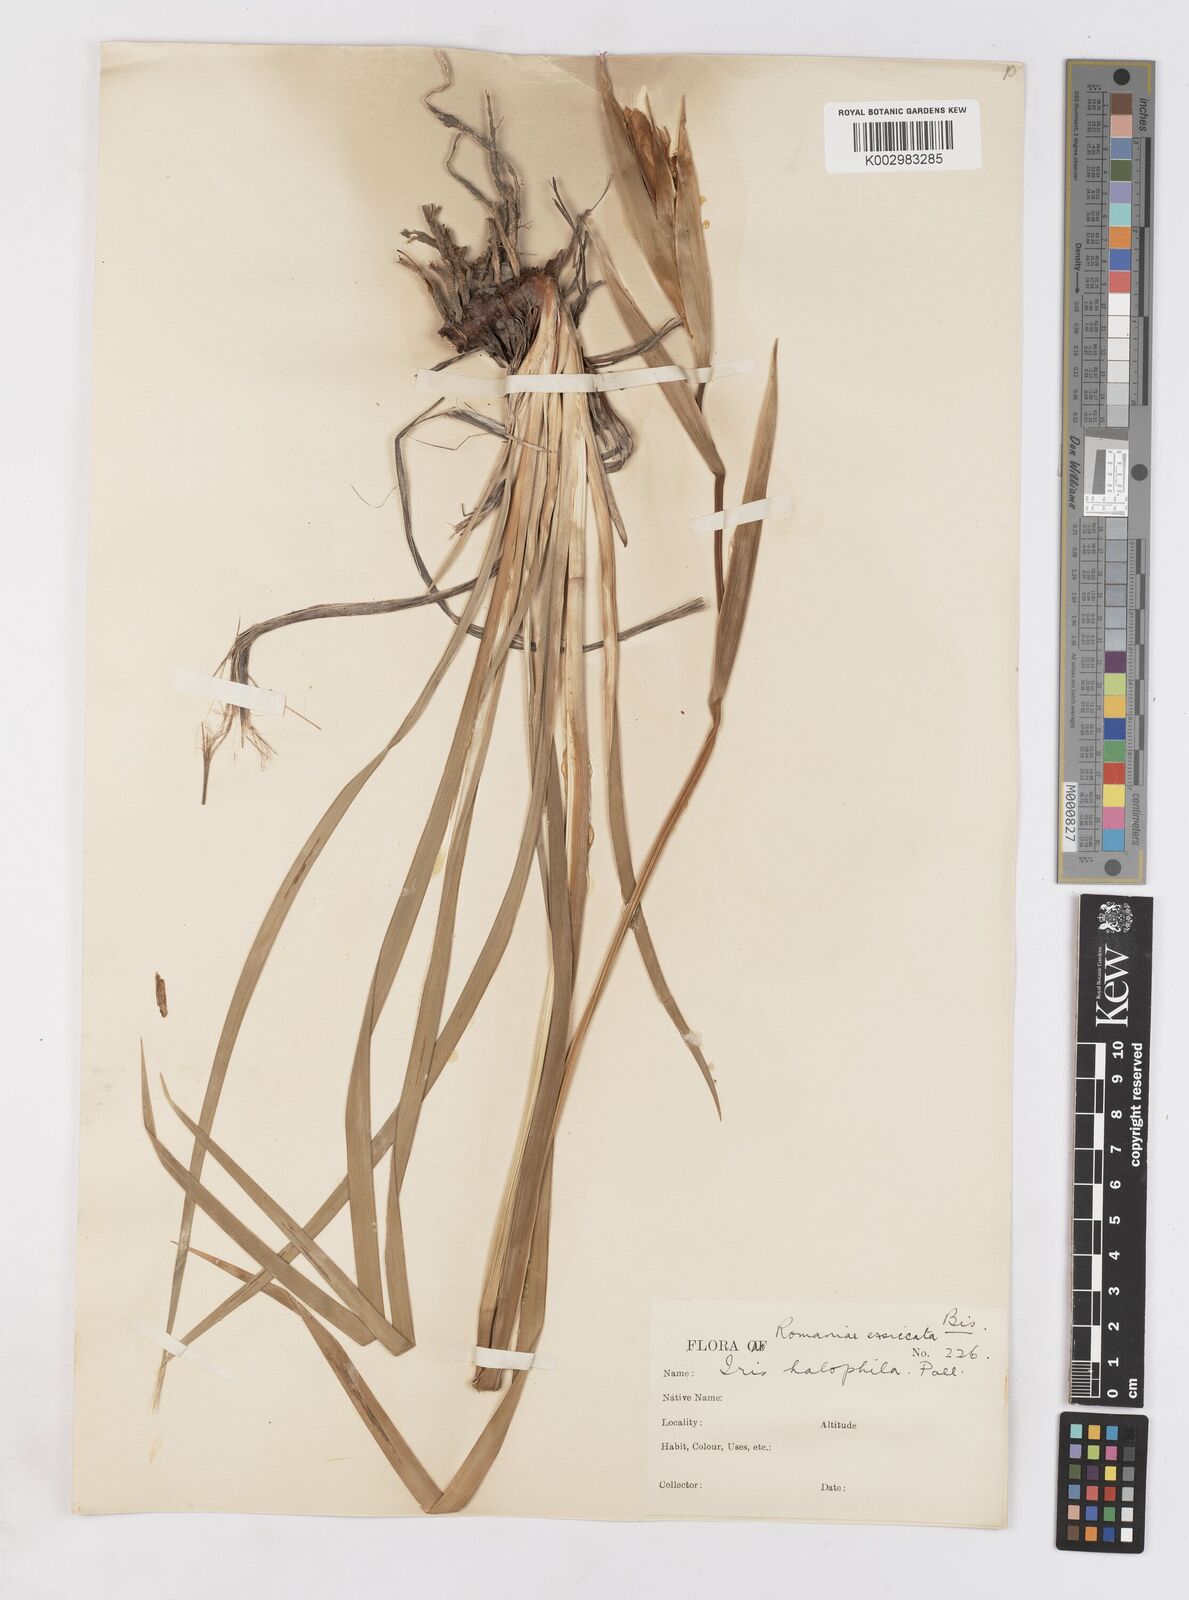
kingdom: Plantae
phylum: Tracheophyta
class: Liliopsida
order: Asparagales
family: Iridaceae
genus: Iris
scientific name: Iris halophila
